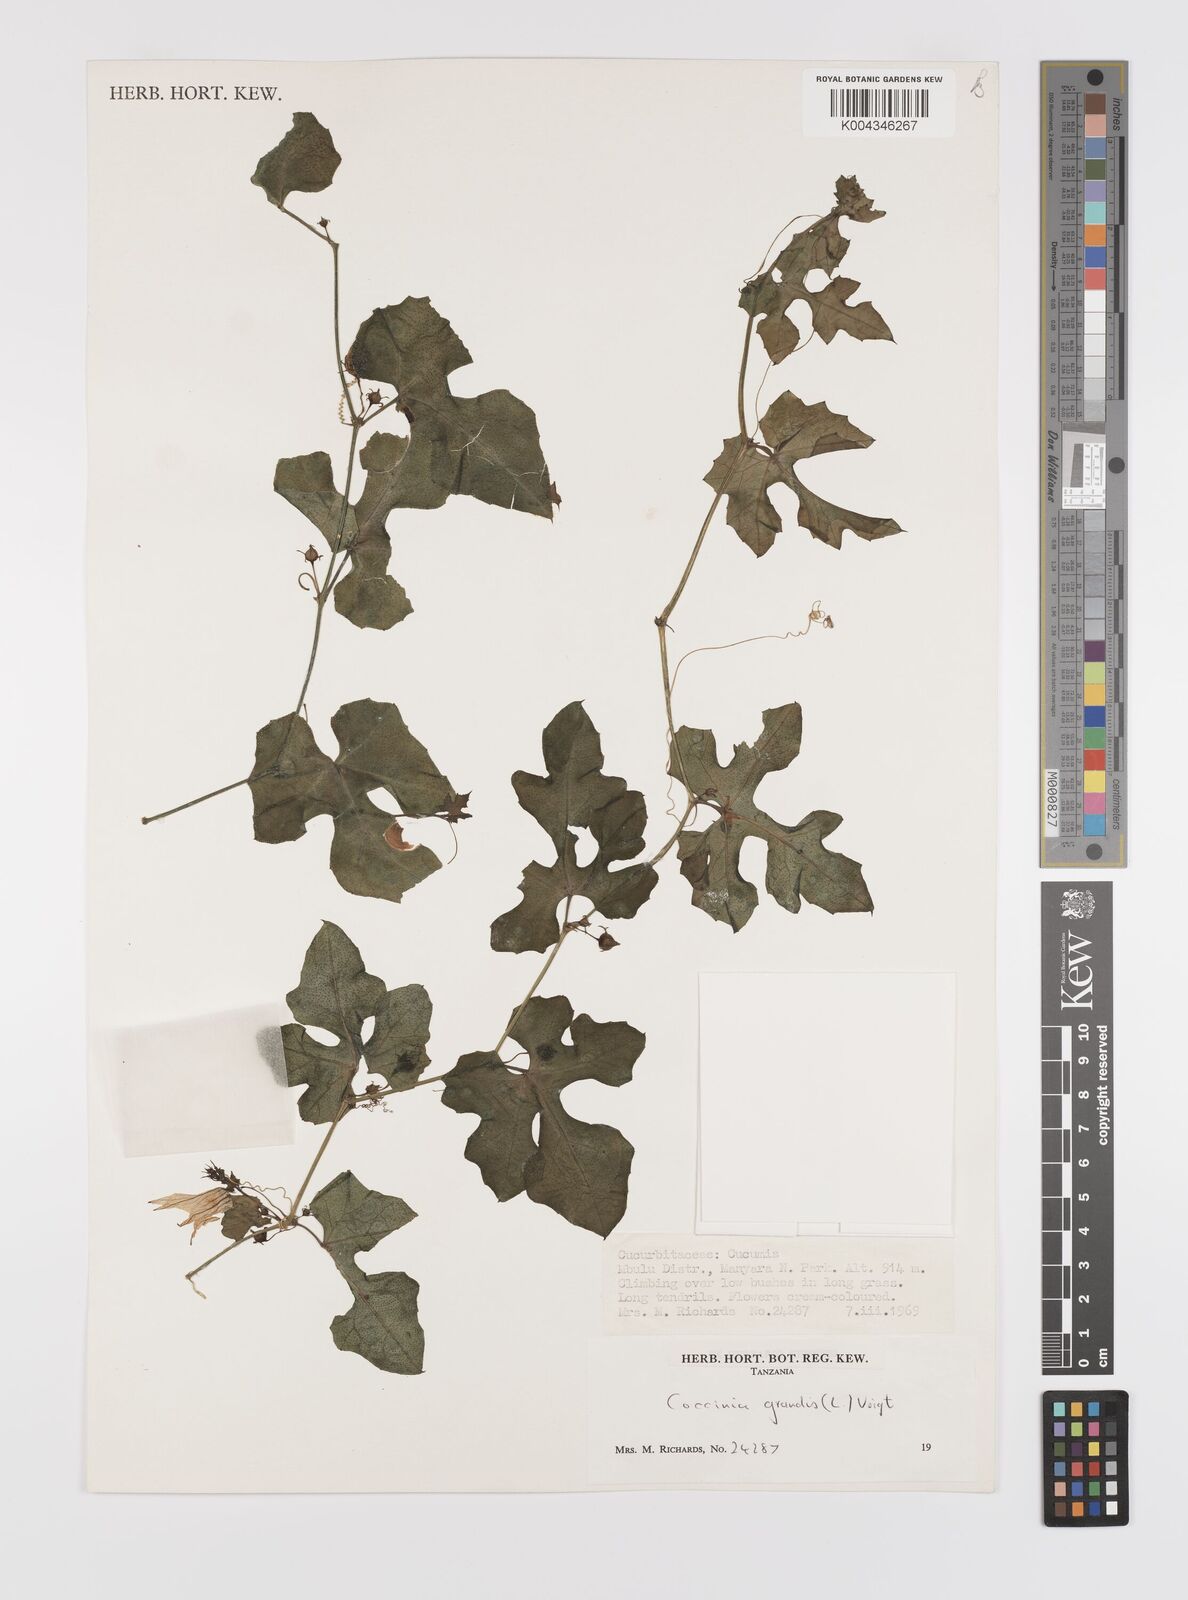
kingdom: Plantae
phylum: Tracheophyta
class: Magnoliopsida
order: Cucurbitales
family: Cucurbitaceae
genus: Coccinia
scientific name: Coccinia grandis
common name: Ivy gourd
